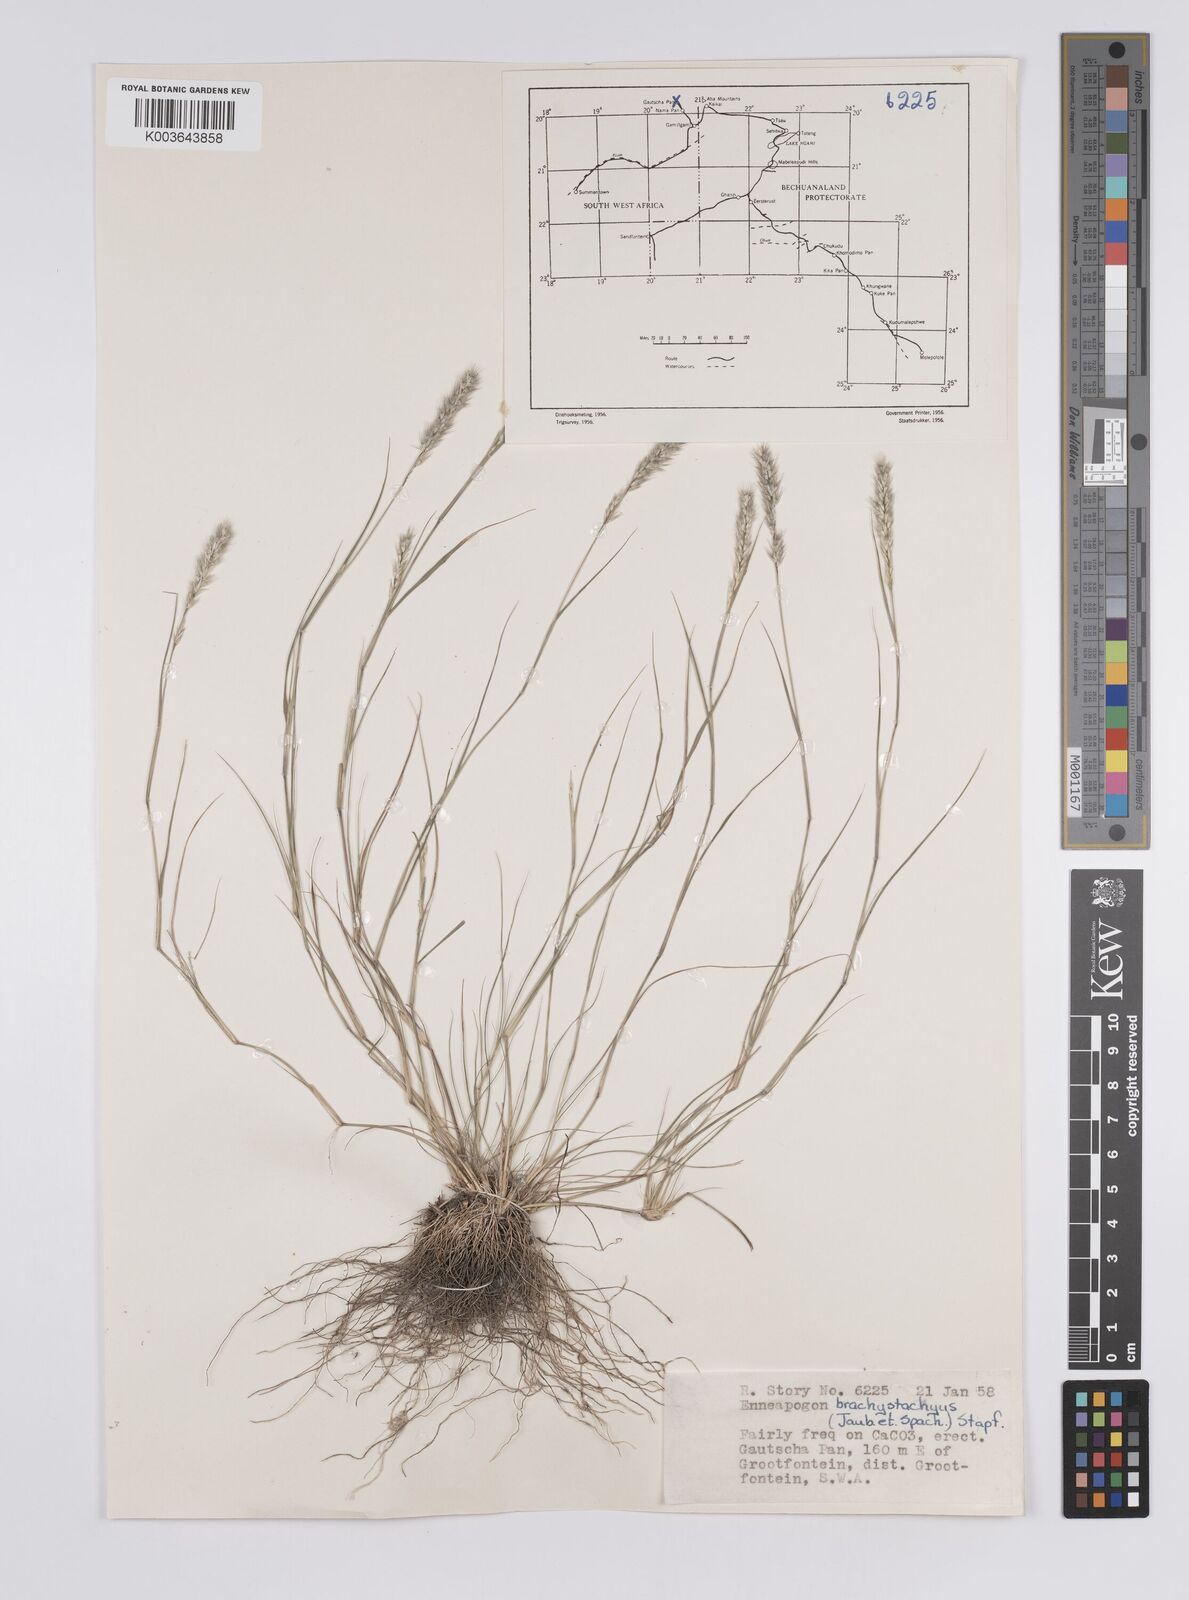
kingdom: Plantae
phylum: Tracheophyta
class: Liliopsida
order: Poales
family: Poaceae
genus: Enneapogon
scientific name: Enneapogon desvauxii
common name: Feather pappus grass
